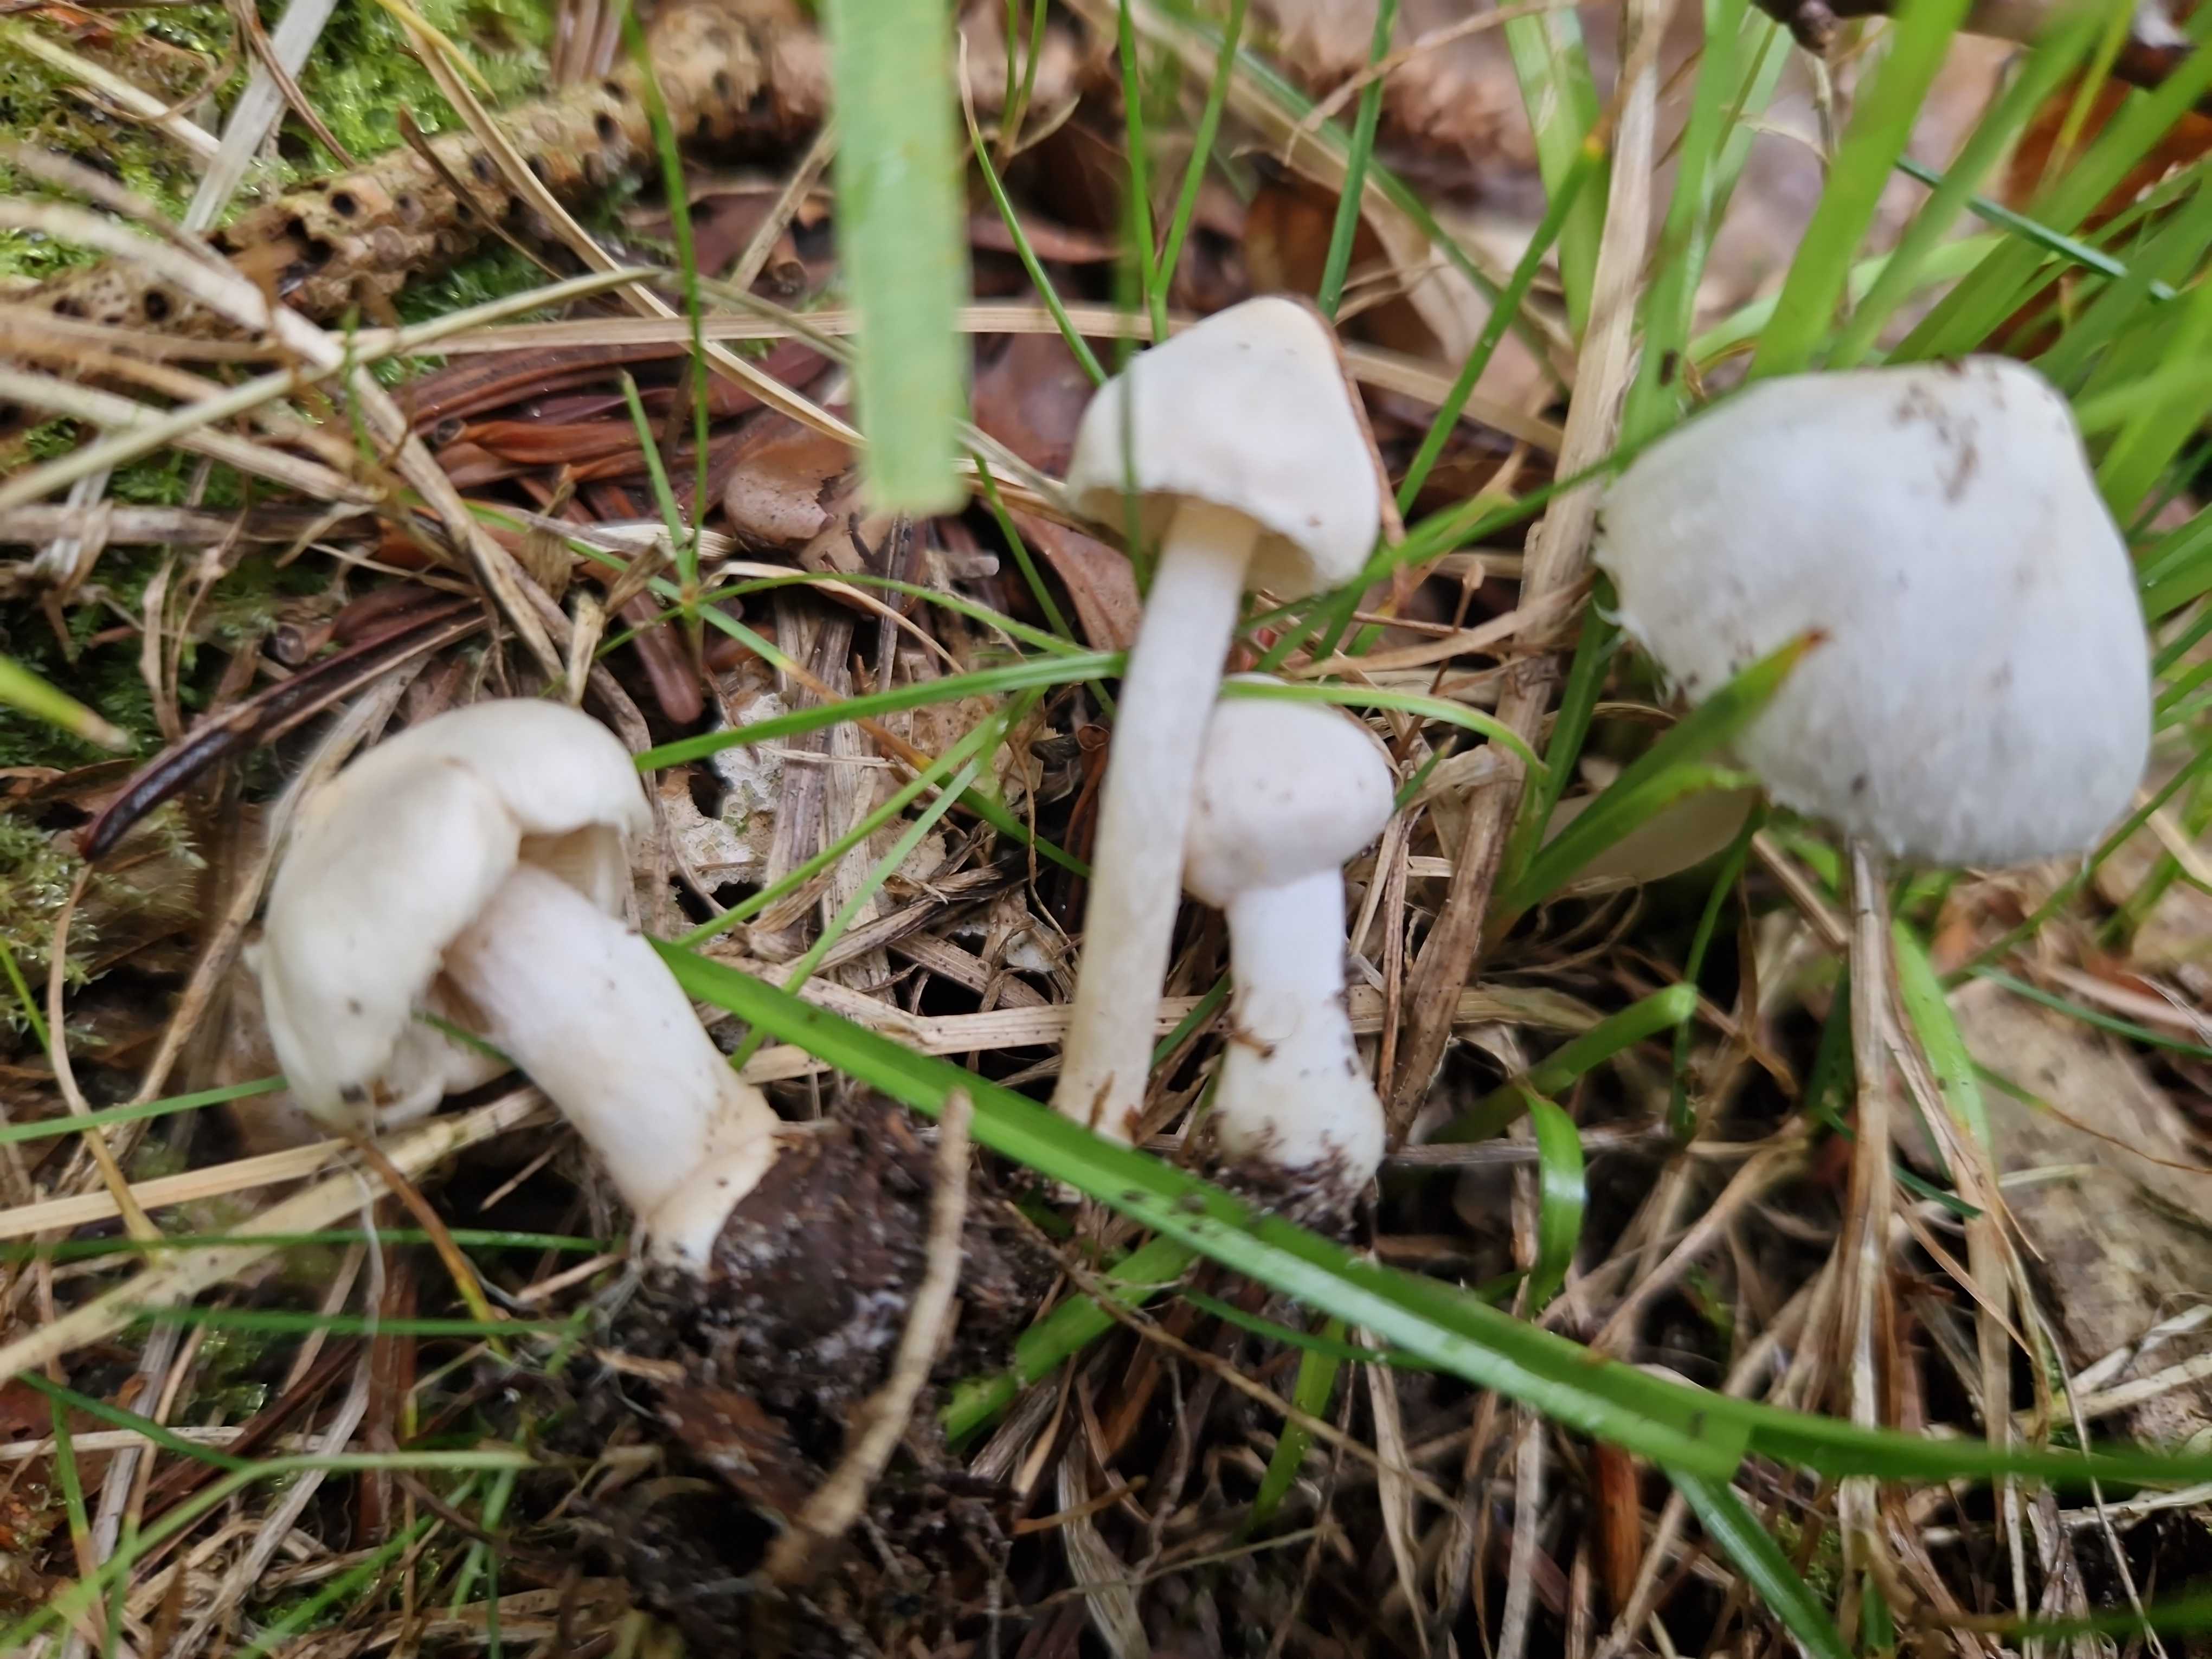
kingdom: Fungi
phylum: Basidiomycota
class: Agaricomycetes
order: Agaricales
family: Inocybaceae
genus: Inocybe
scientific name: Inocybe
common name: almindelig trævlhat
